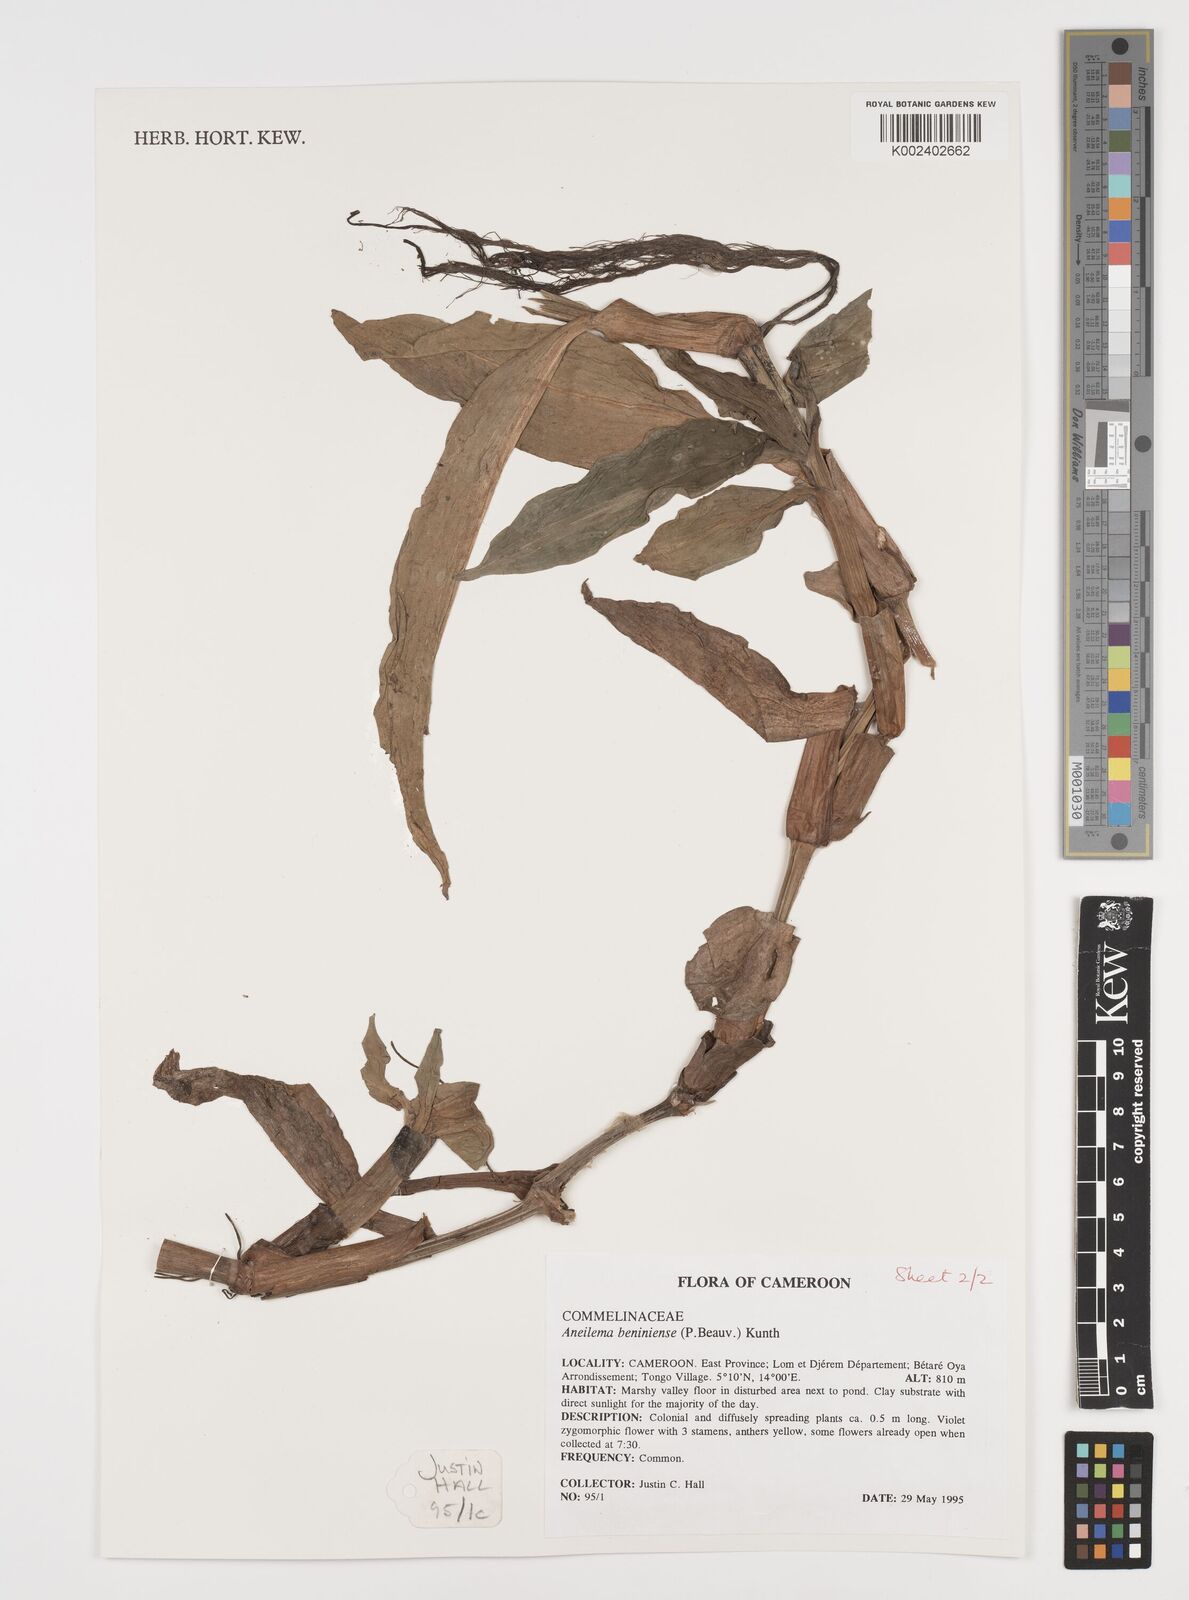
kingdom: Plantae
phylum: Tracheophyta
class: Liliopsida
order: Commelinales
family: Commelinaceae
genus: Aneilema
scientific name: Aneilema beniniense
